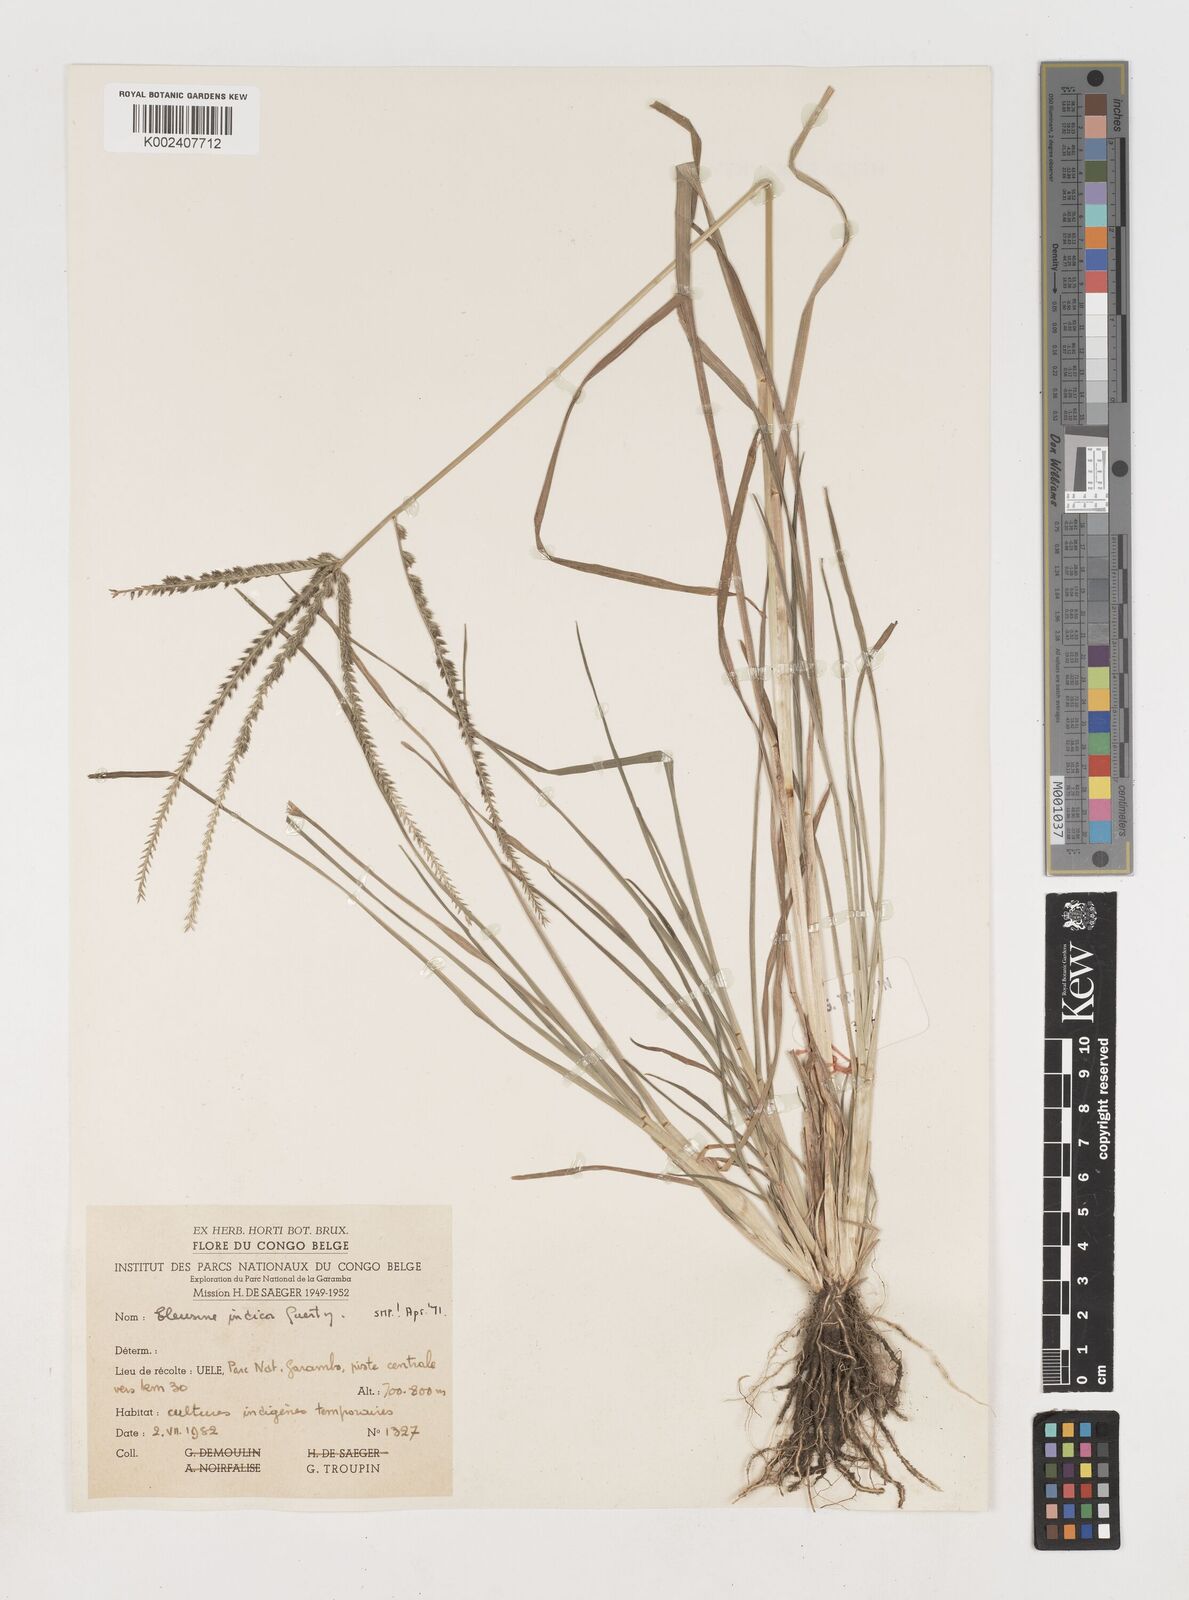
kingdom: Plantae
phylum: Tracheophyta
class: Liliopsida
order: Poales
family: Poaceae
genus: Eleusine
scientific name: Eleusine indica
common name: Yard-grass
